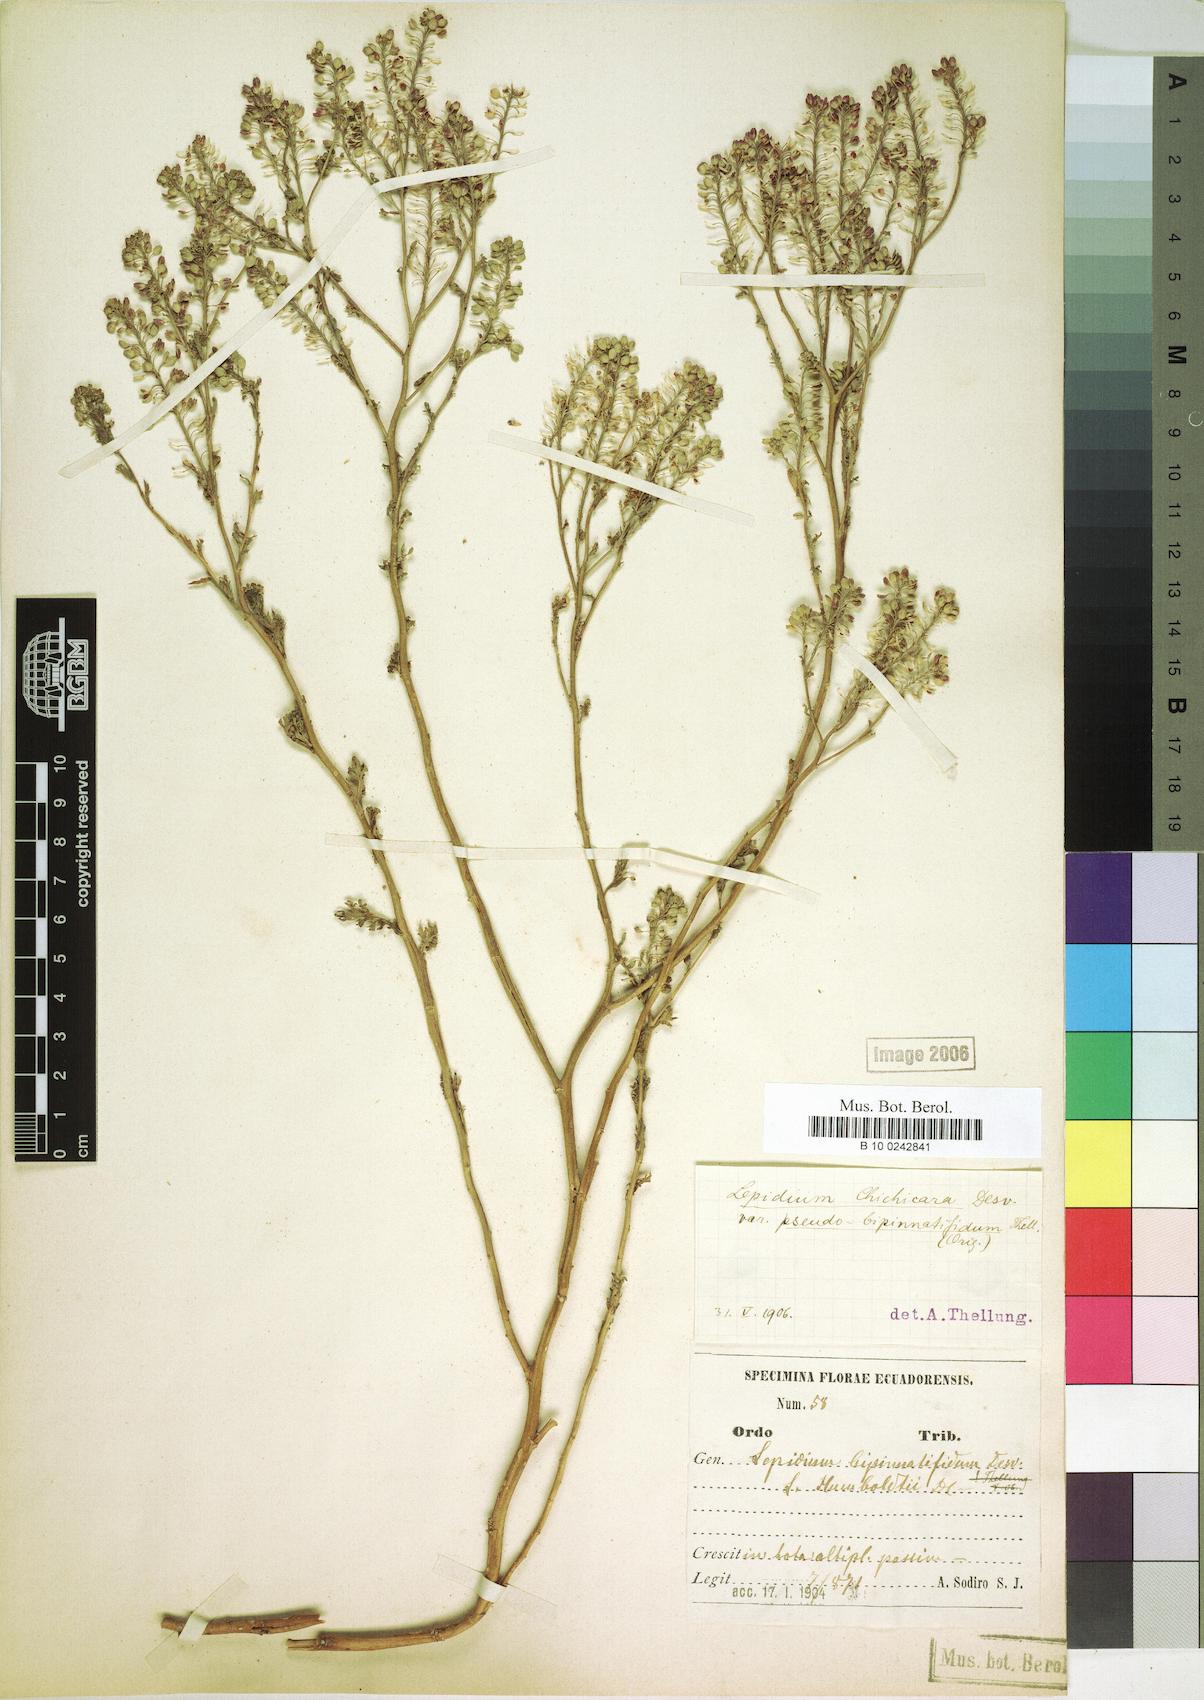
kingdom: Plantae
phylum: Tracheophyta
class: Magnoliopsida
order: Brassicales
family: Brassicaceae
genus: Lepidium
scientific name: Lepidium chichicara
